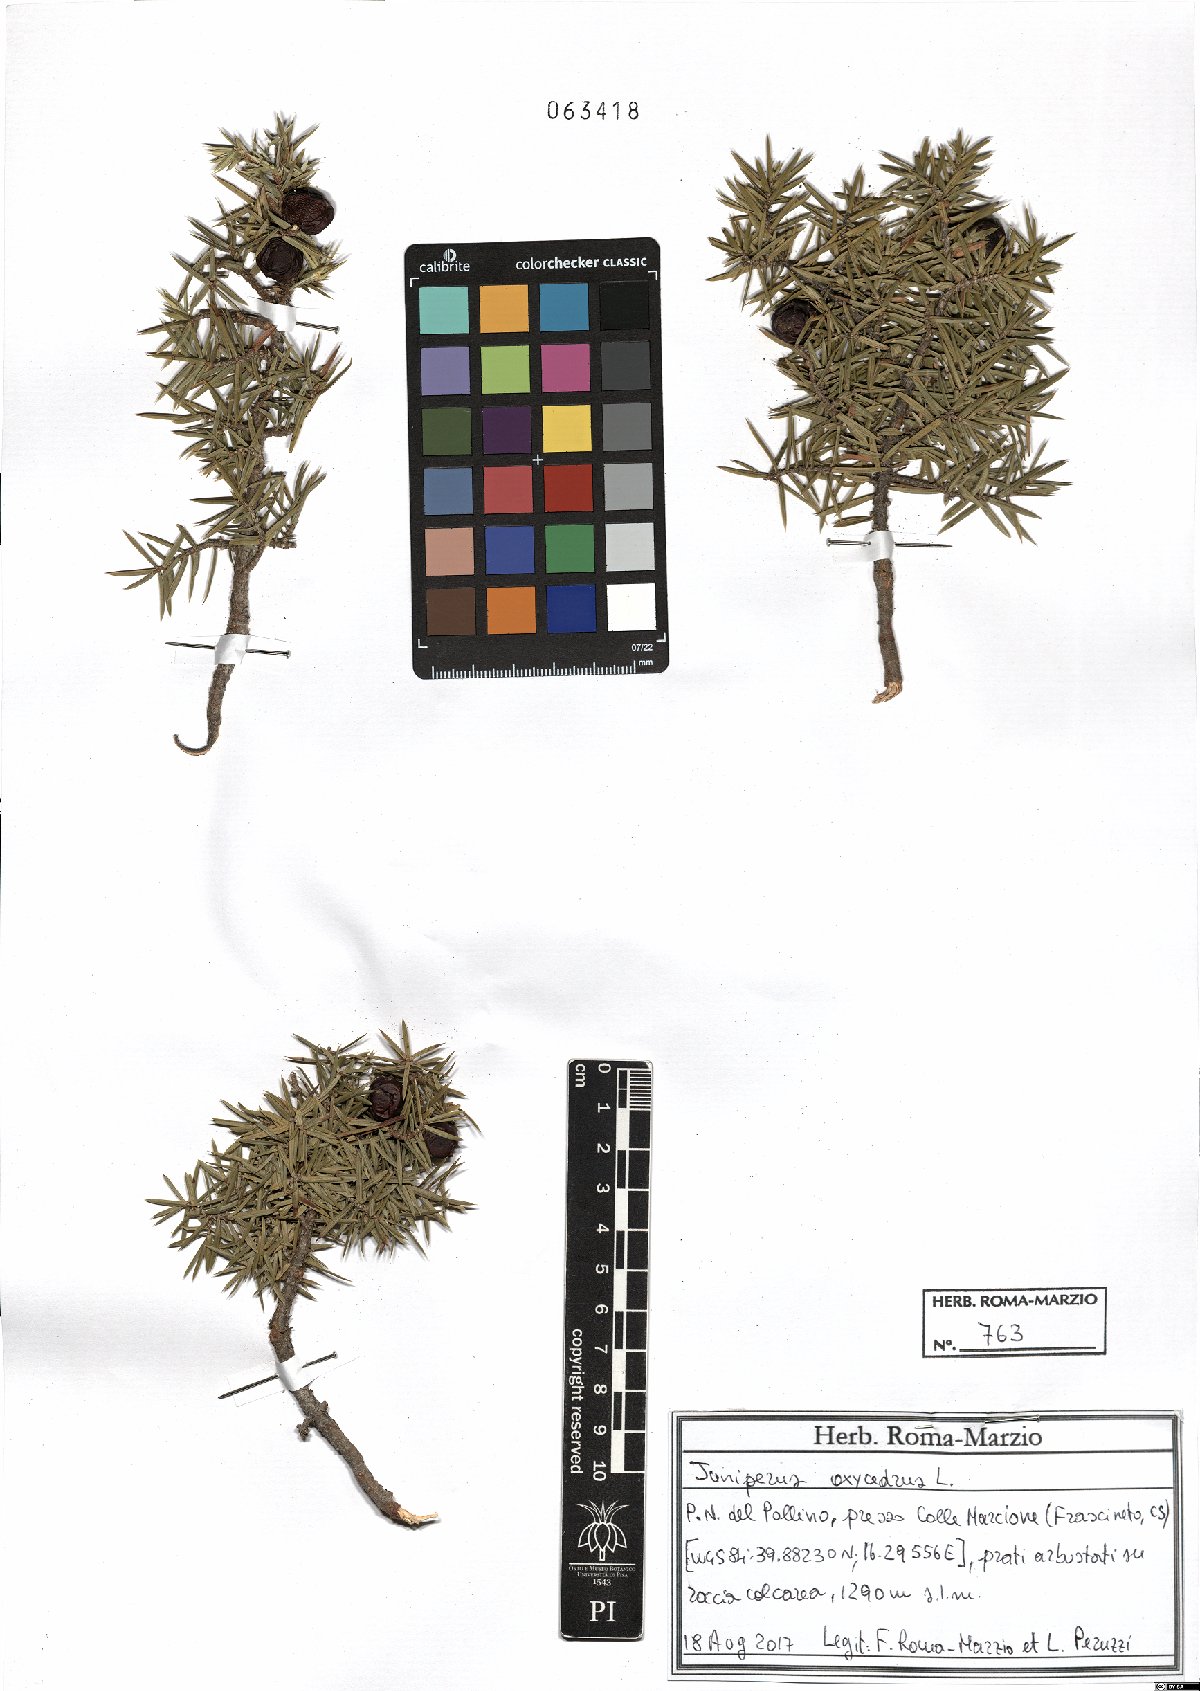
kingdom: Plantae
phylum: Tracheophyta
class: Pinopsida
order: Pinales
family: Cupressaceae
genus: Juniperus
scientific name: Juniperus oxycedrus
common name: Prickly juniper
